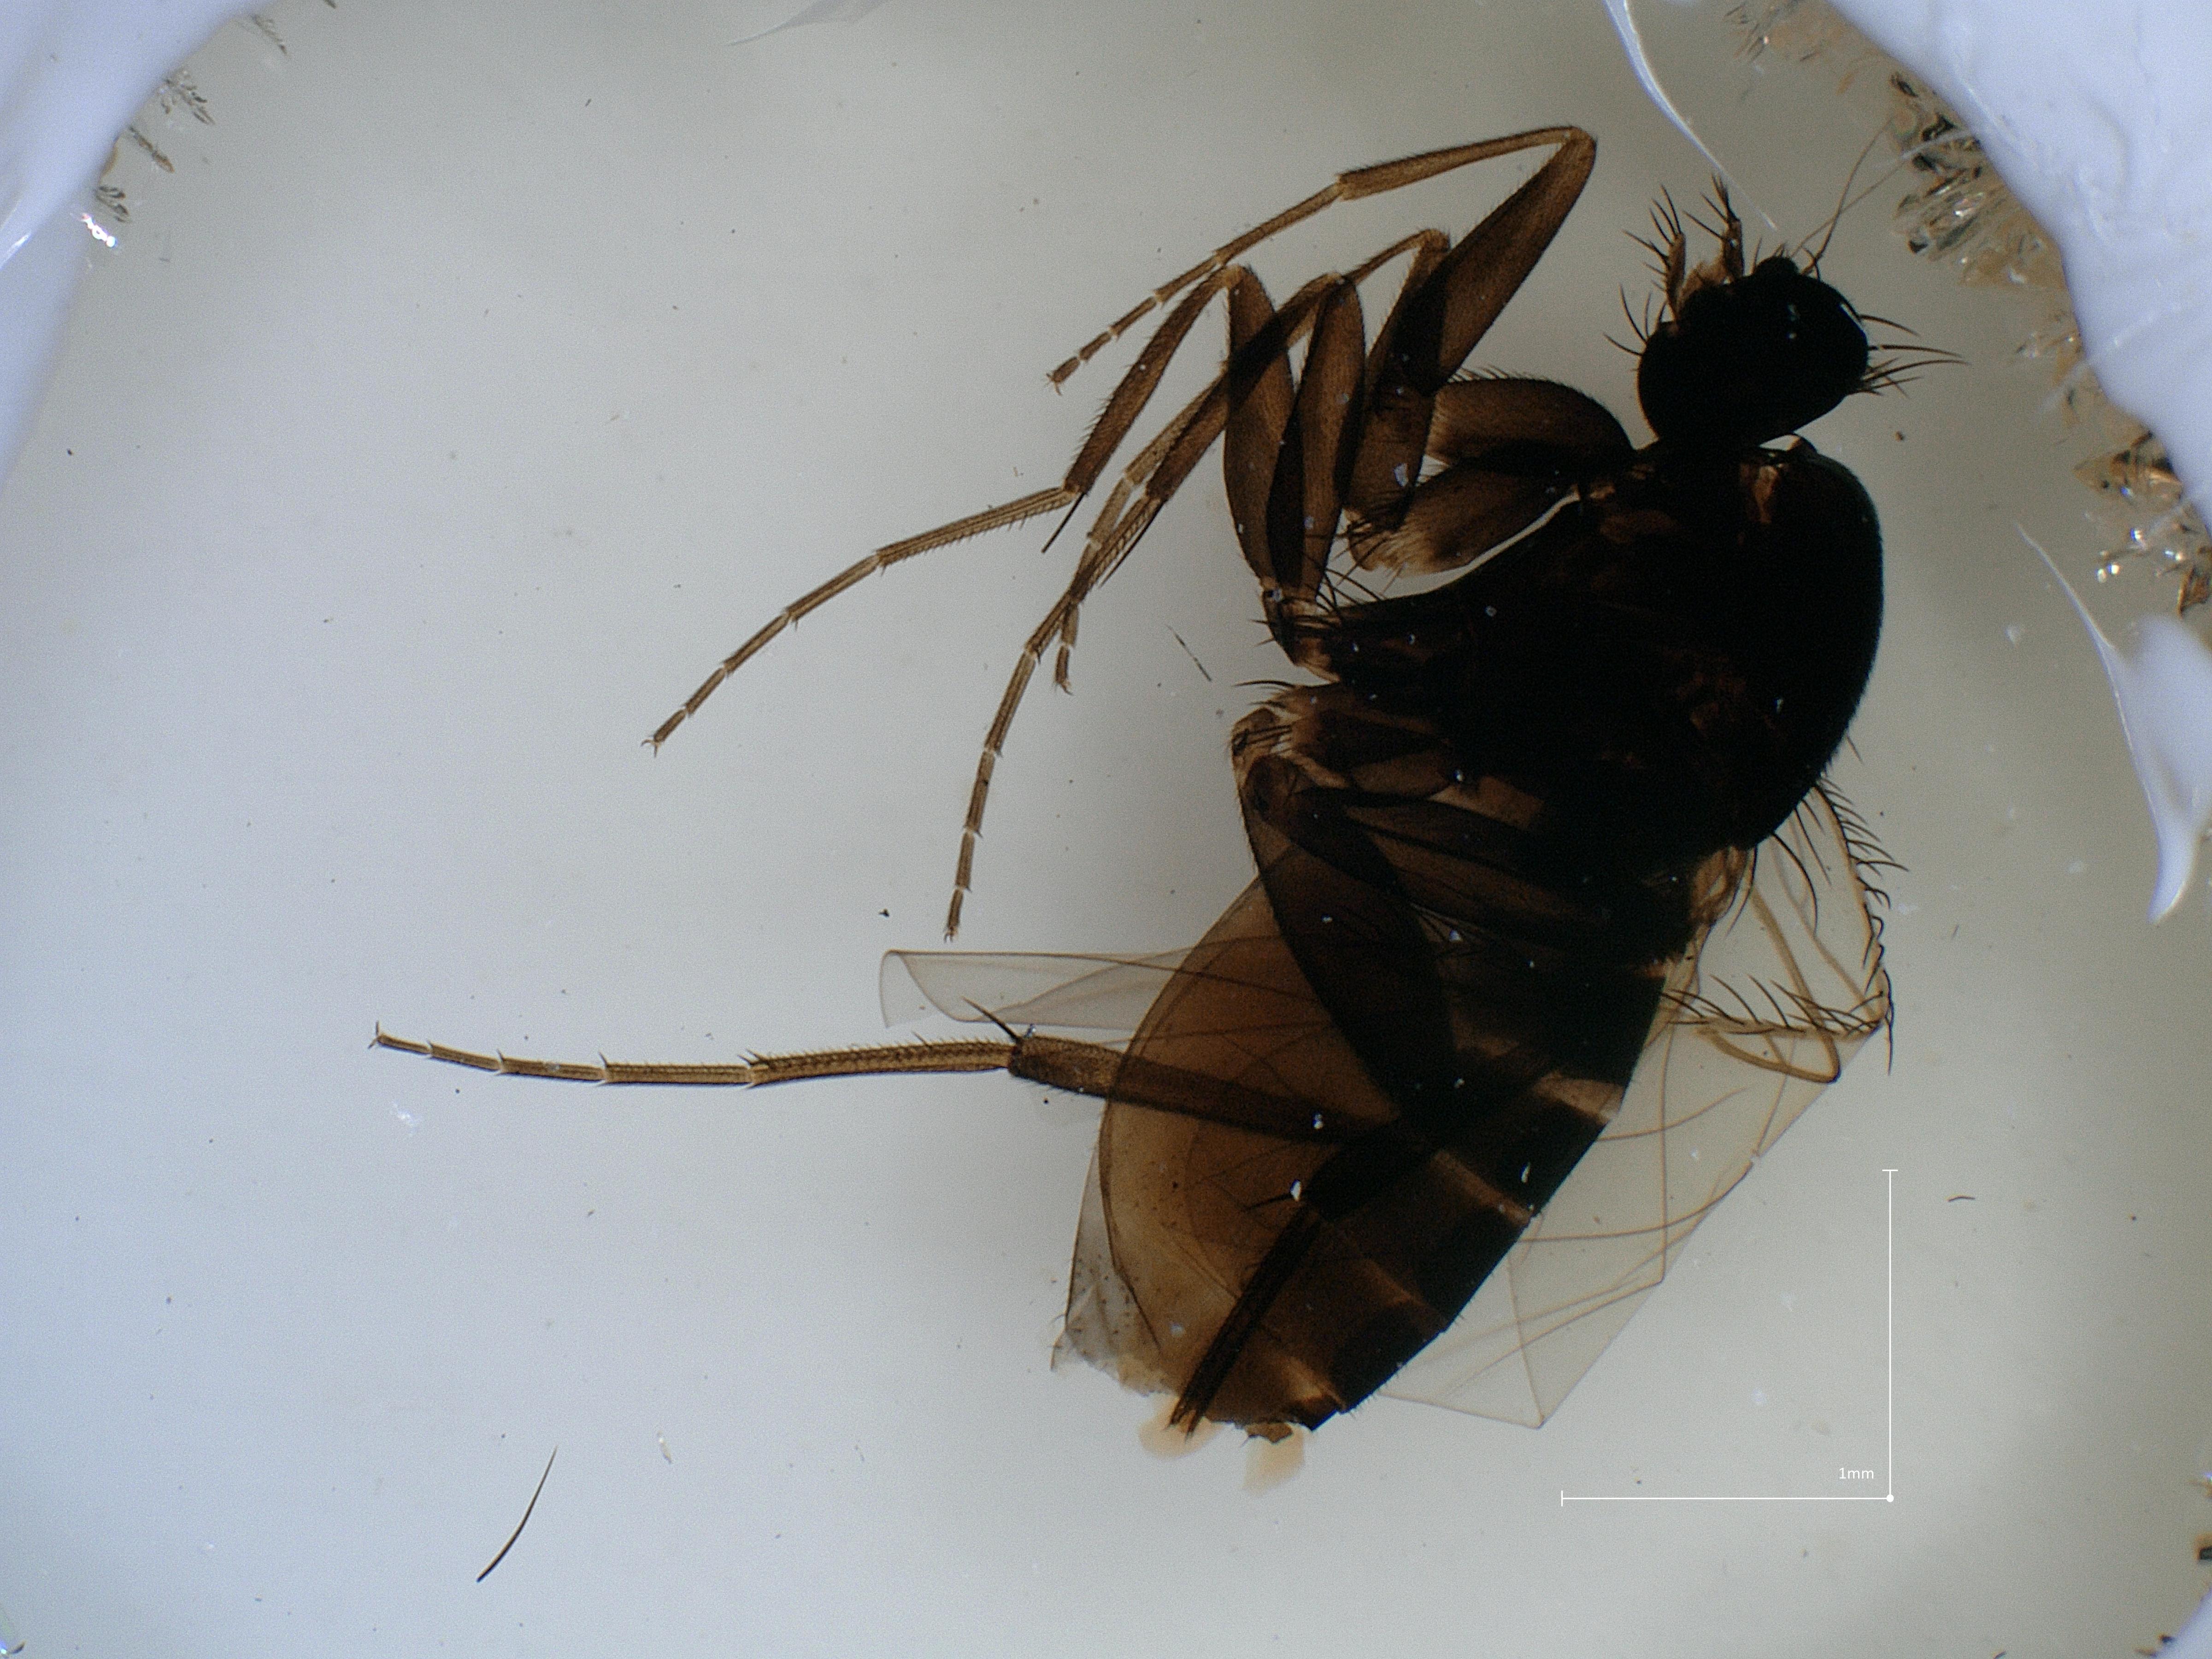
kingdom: Animalia
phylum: Arthropoda
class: Insecta
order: Diptera
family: Phoridae
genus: Megaselia
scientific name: Megaselia tenebricola
